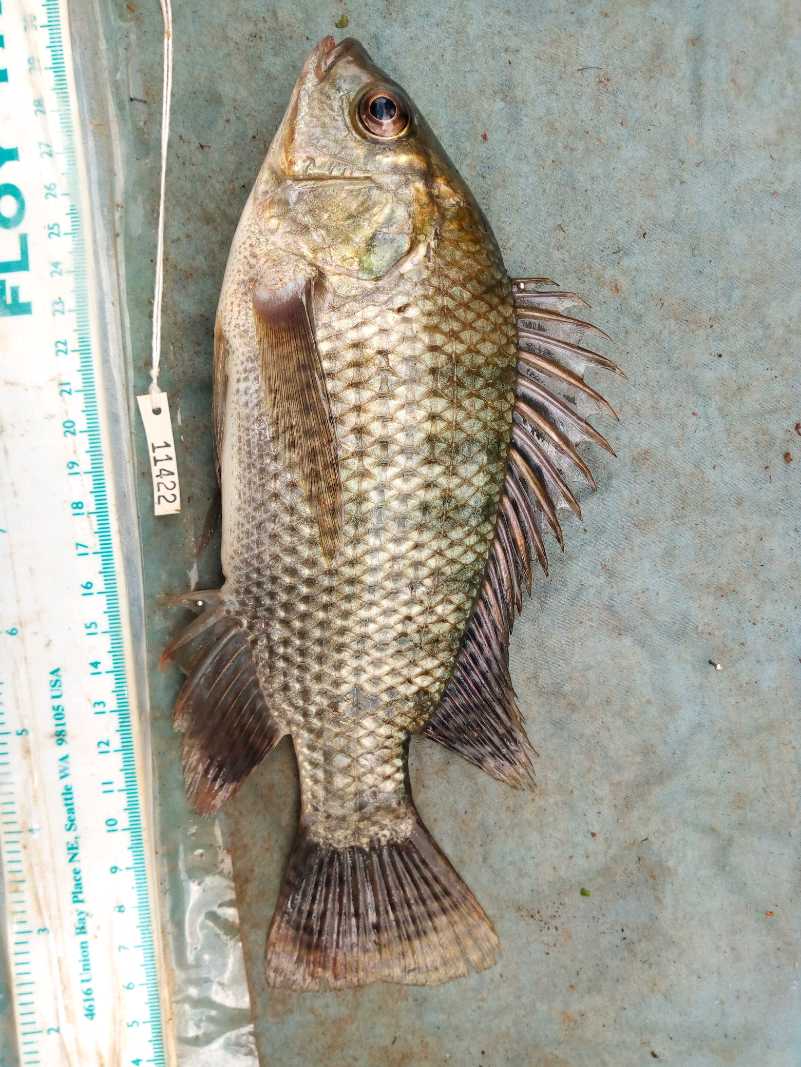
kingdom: Animalia
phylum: Chordata
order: Perciformes
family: Cichlidae
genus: Oreochromis
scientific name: Oreochromis niloticus
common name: Nile tilapia
